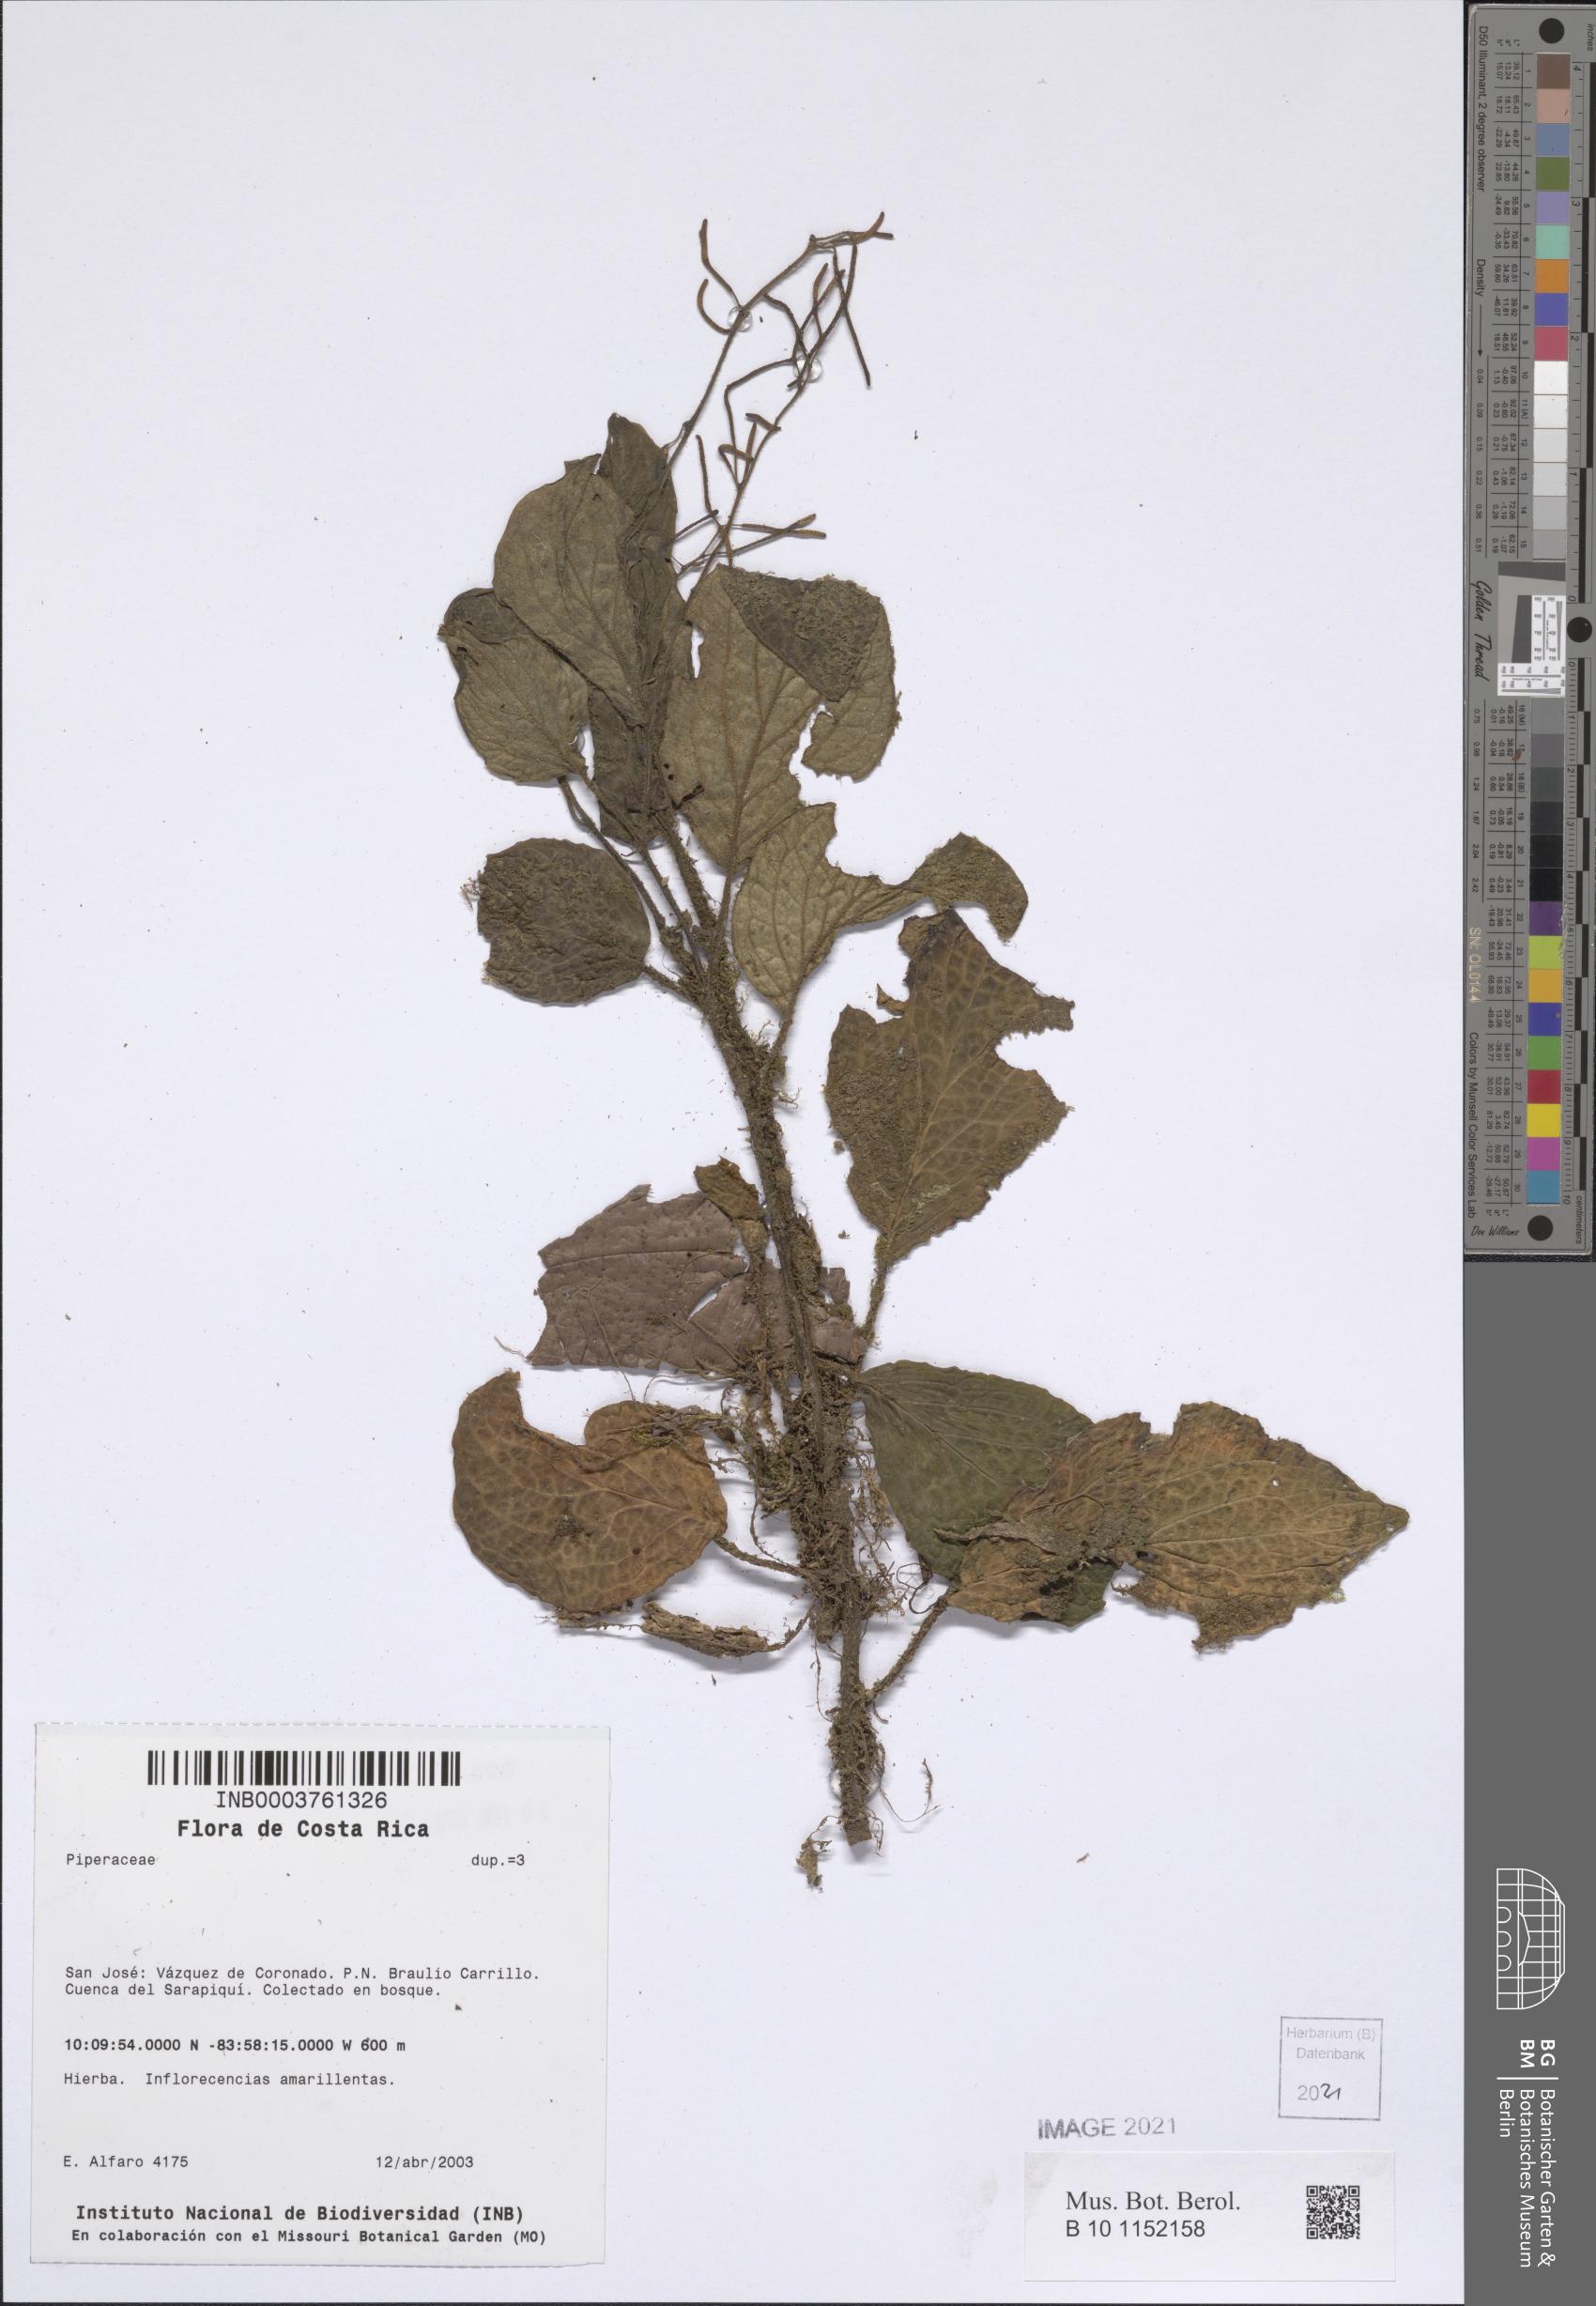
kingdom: Plantae
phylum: Tracheophyta
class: Magnoliopsida
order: Piperales
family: Piperaceae
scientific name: Piperaceae
